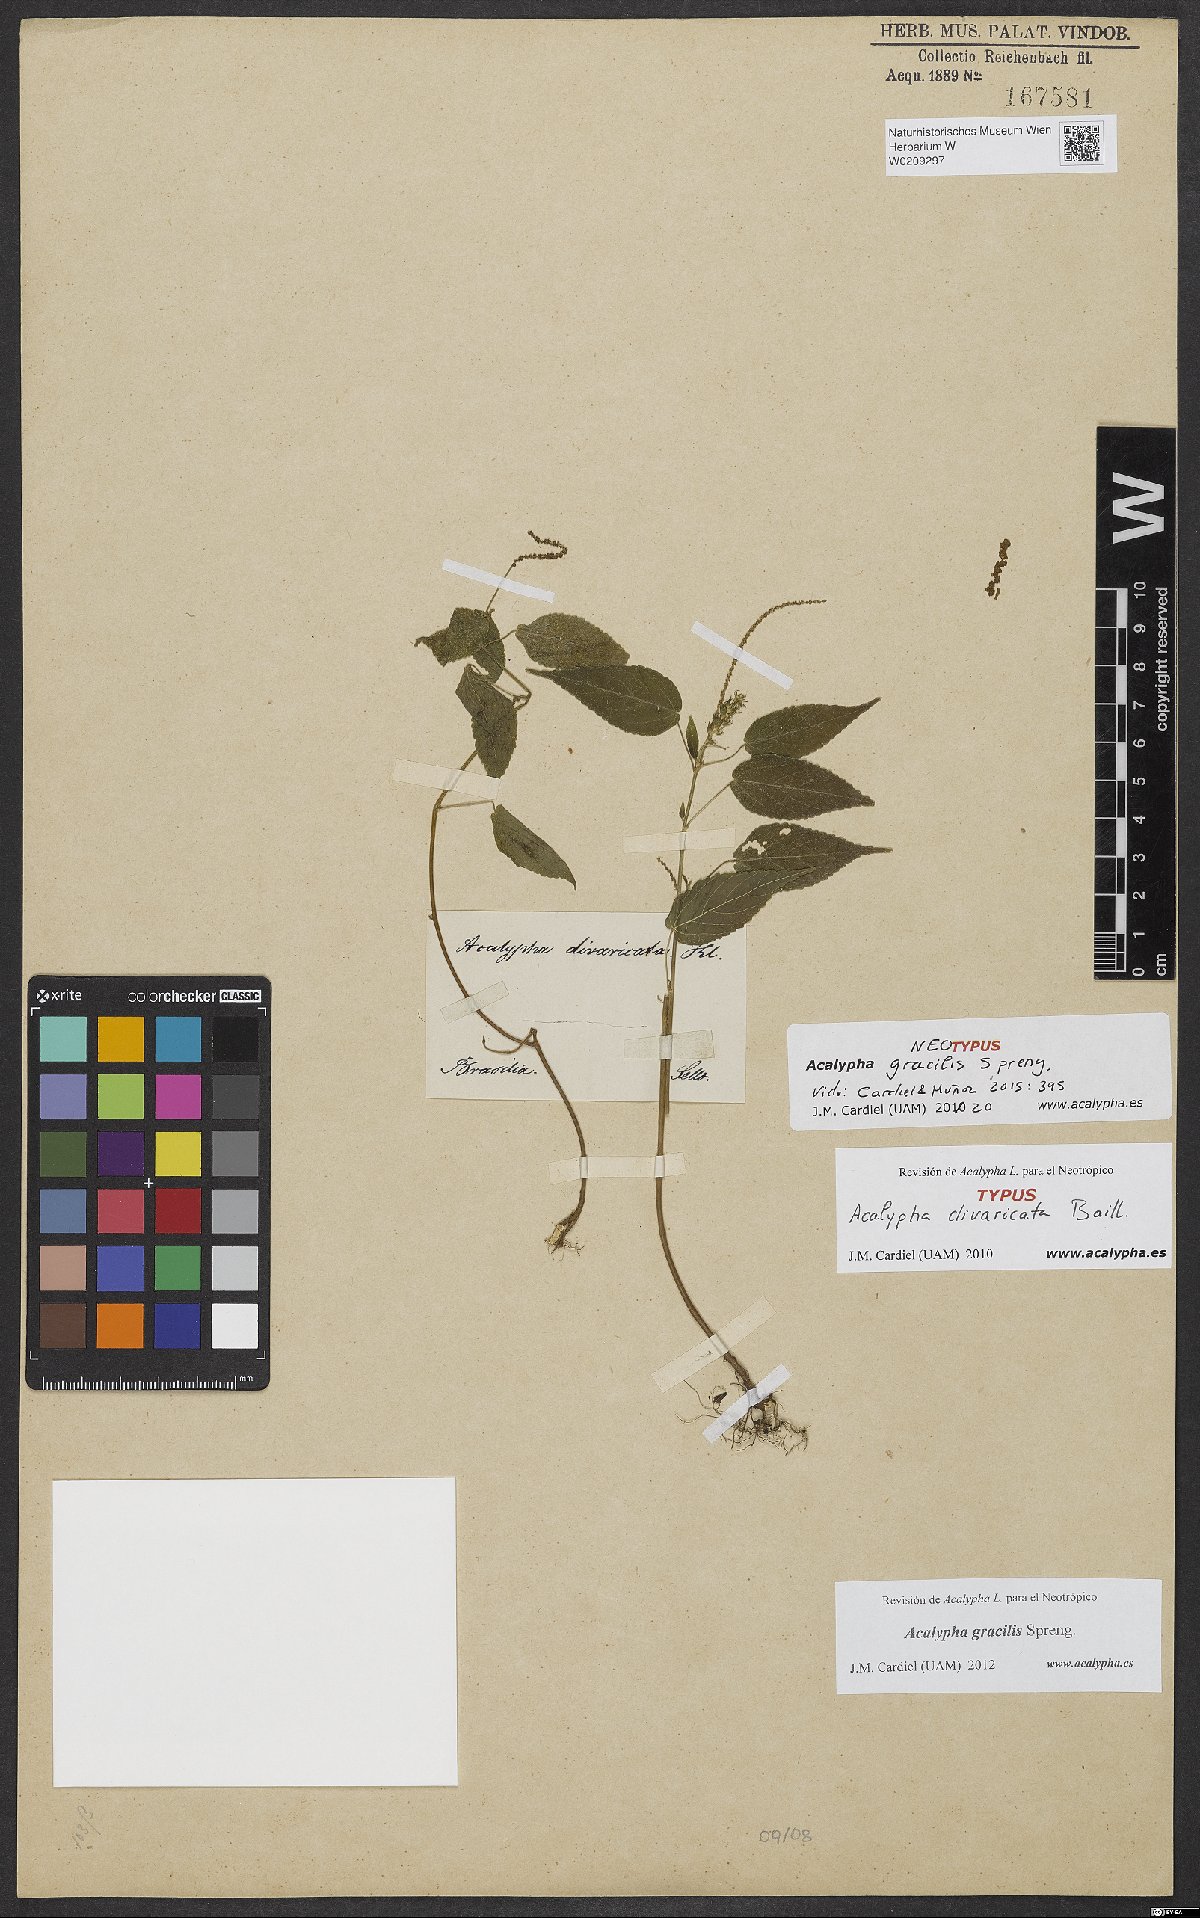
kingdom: Plantae
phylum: Tracheophyta
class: Magnoliopsida
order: Malpighiales
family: Euphorbiaceae
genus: Acalypha
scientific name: Acalypha gracilis
